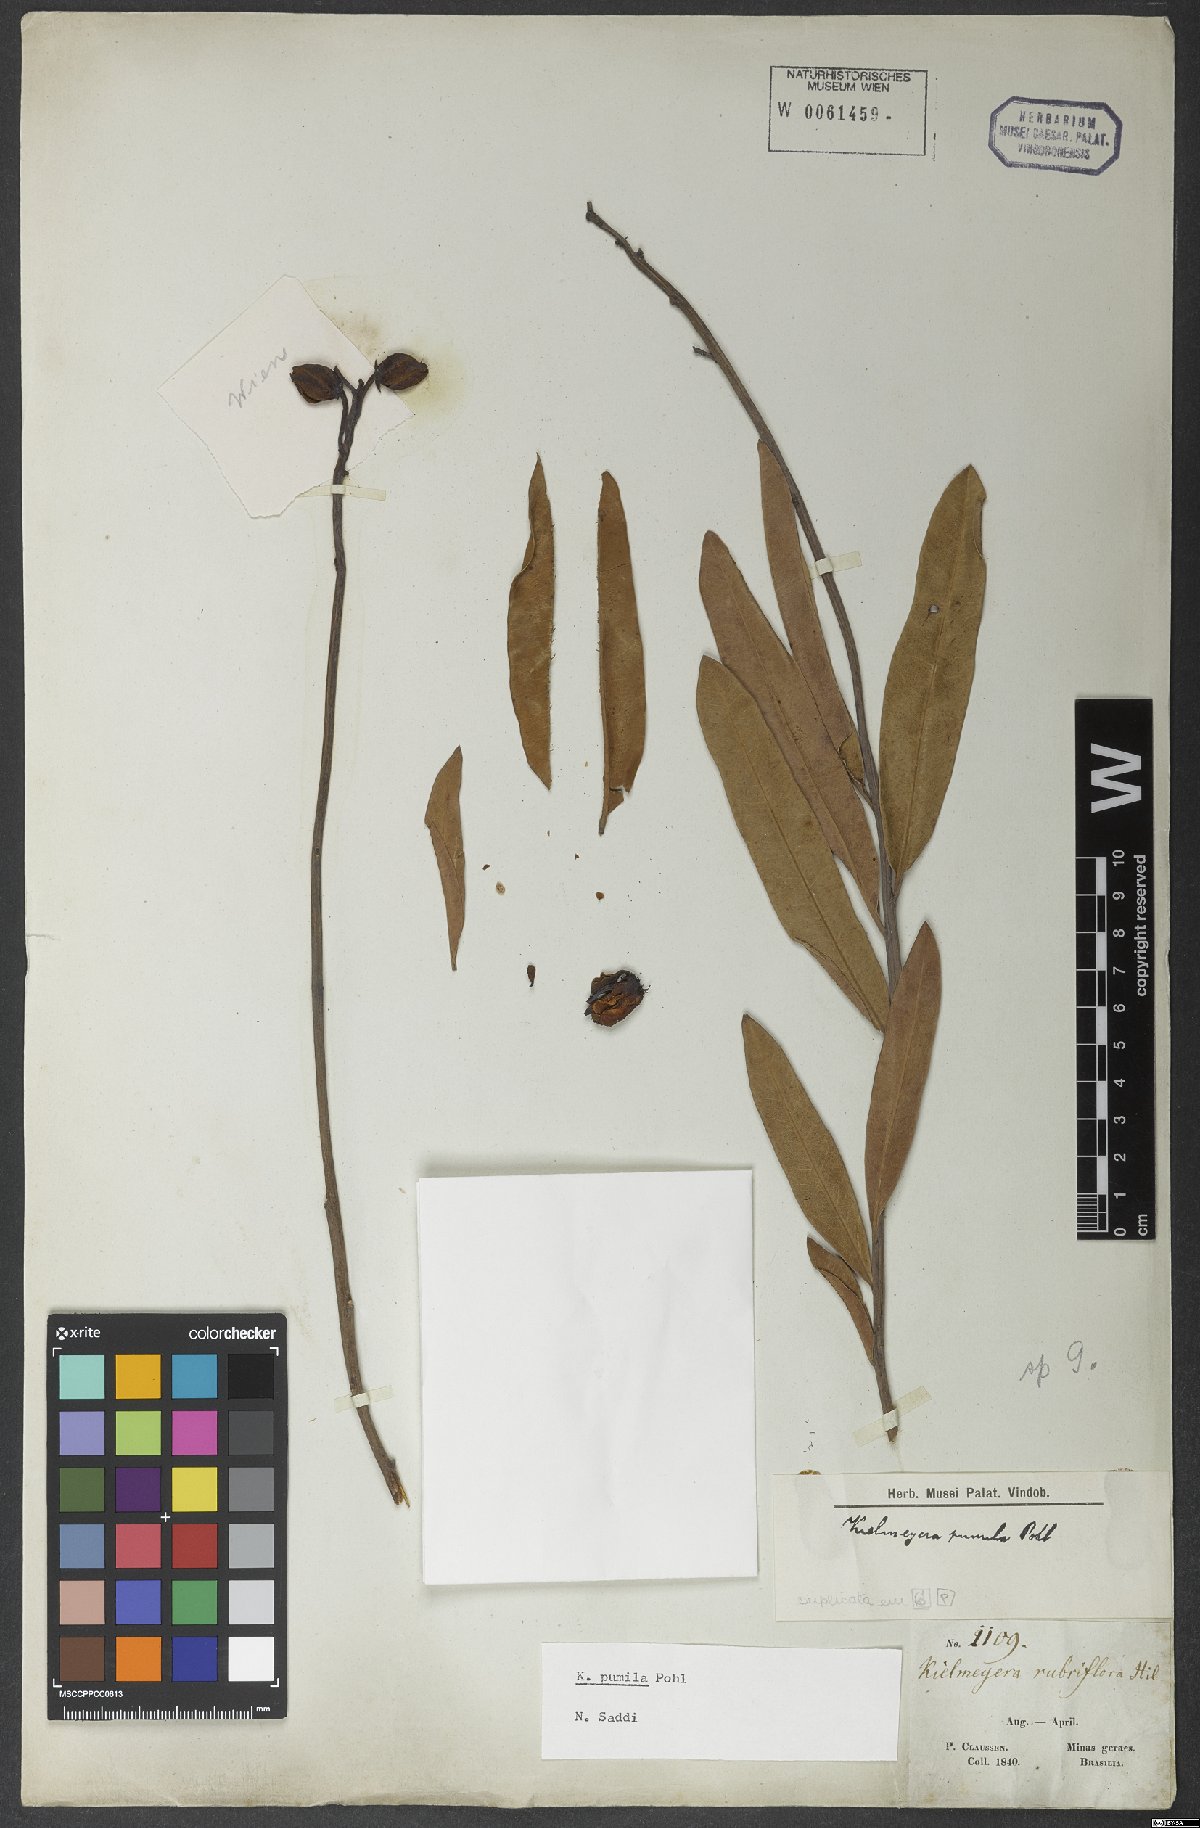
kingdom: Plantae
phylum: Tracheophyta
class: Magnoliopsida
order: Malpighiales
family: Calophyllaceae
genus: Kielmeyera
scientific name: Kielmeyera pumila
